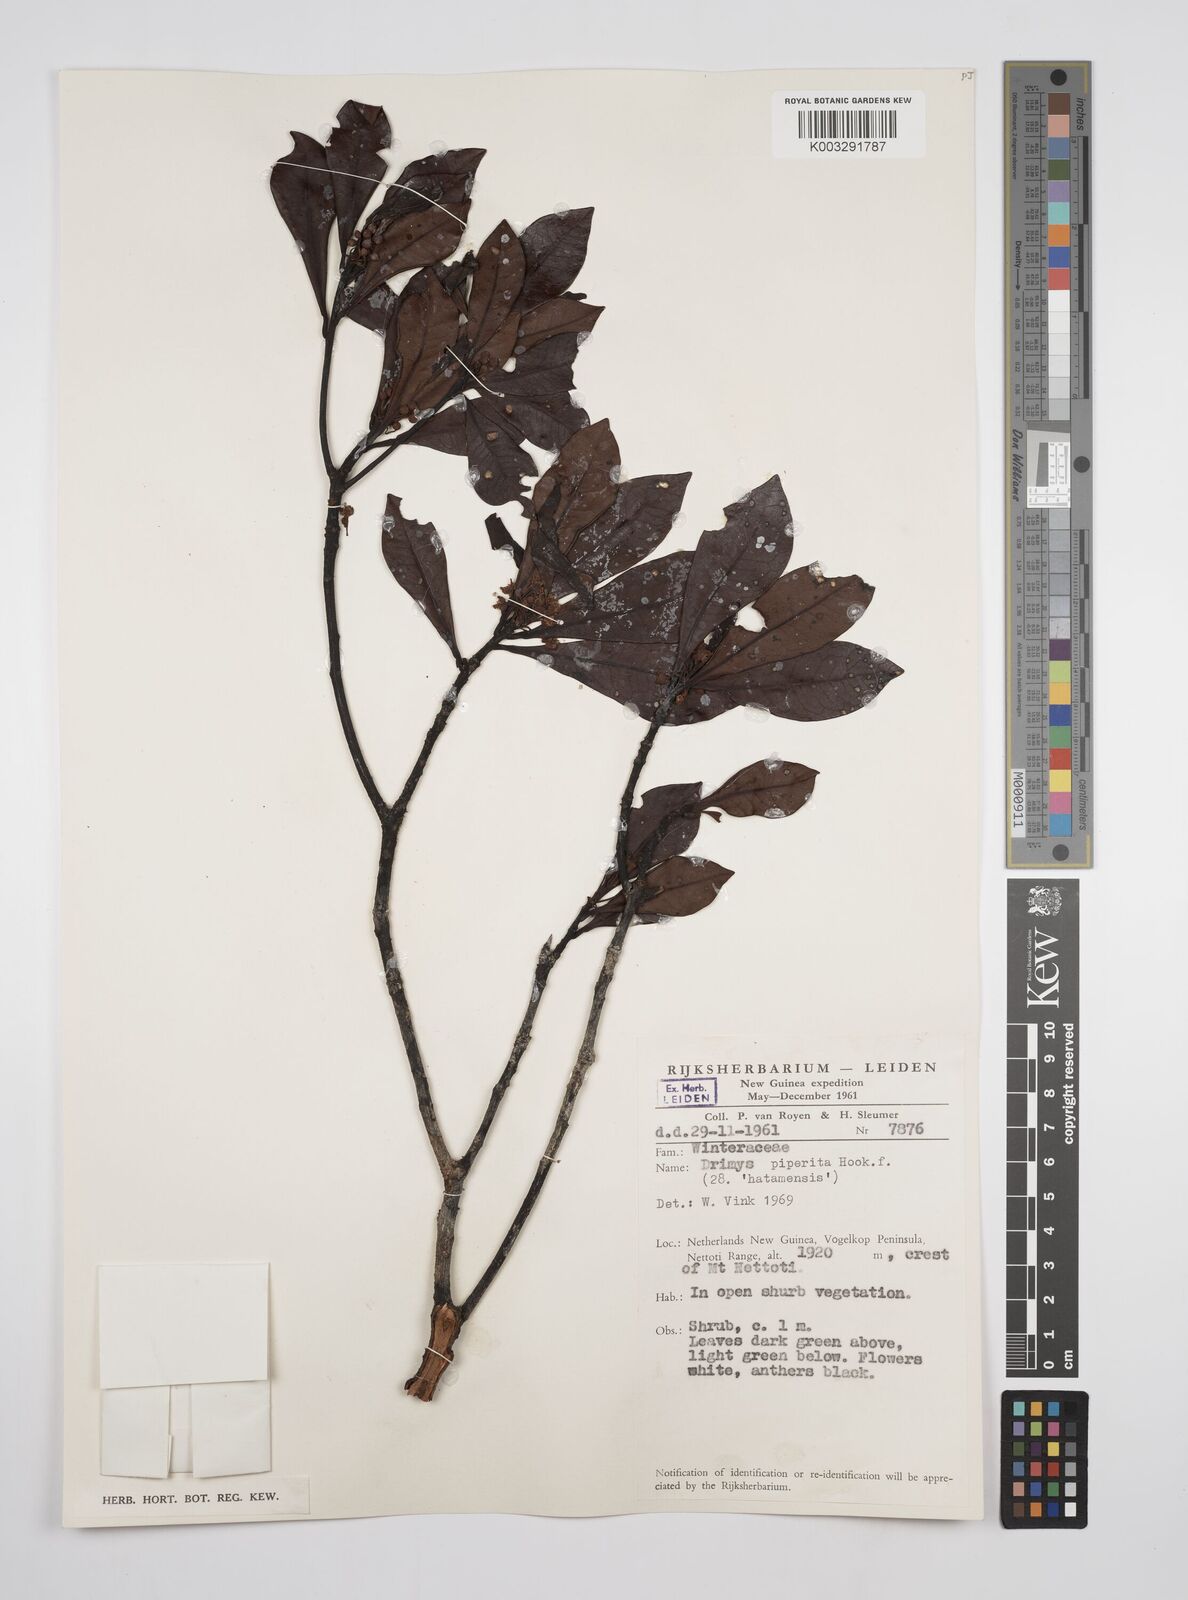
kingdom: Plantae
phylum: Tracheophyta
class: Magnoliopsida
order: Canellales
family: Winteraceae
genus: Drimys
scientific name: Drimys piperita
